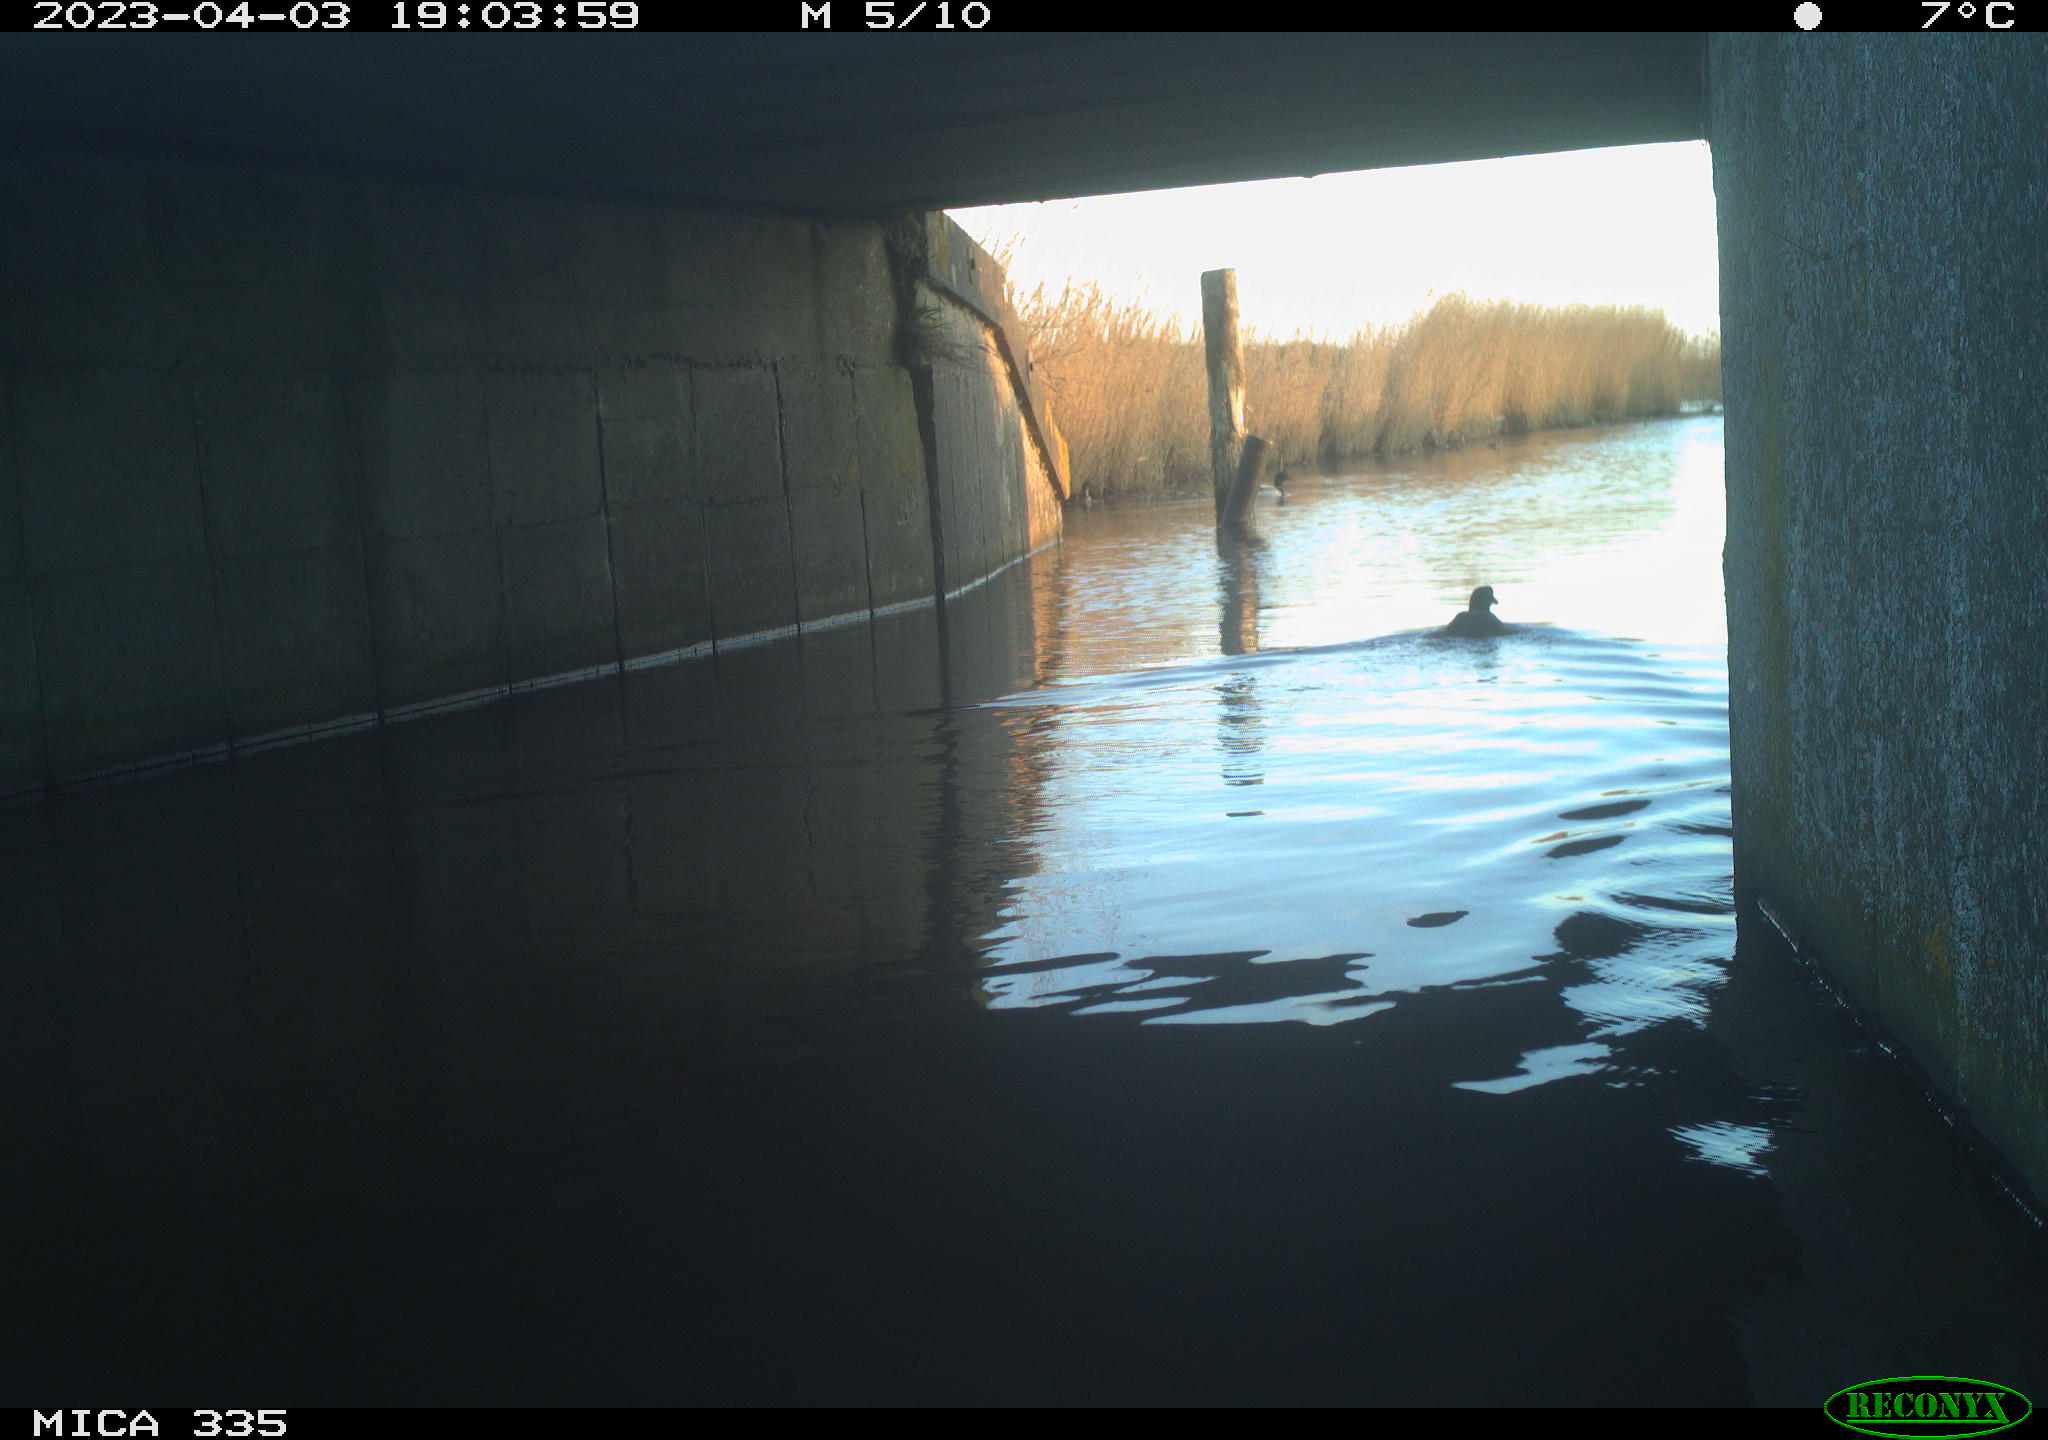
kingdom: Animalia
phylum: Chordata
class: Aves
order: Anseriformes
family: Anatidae
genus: Anas
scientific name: Anas
